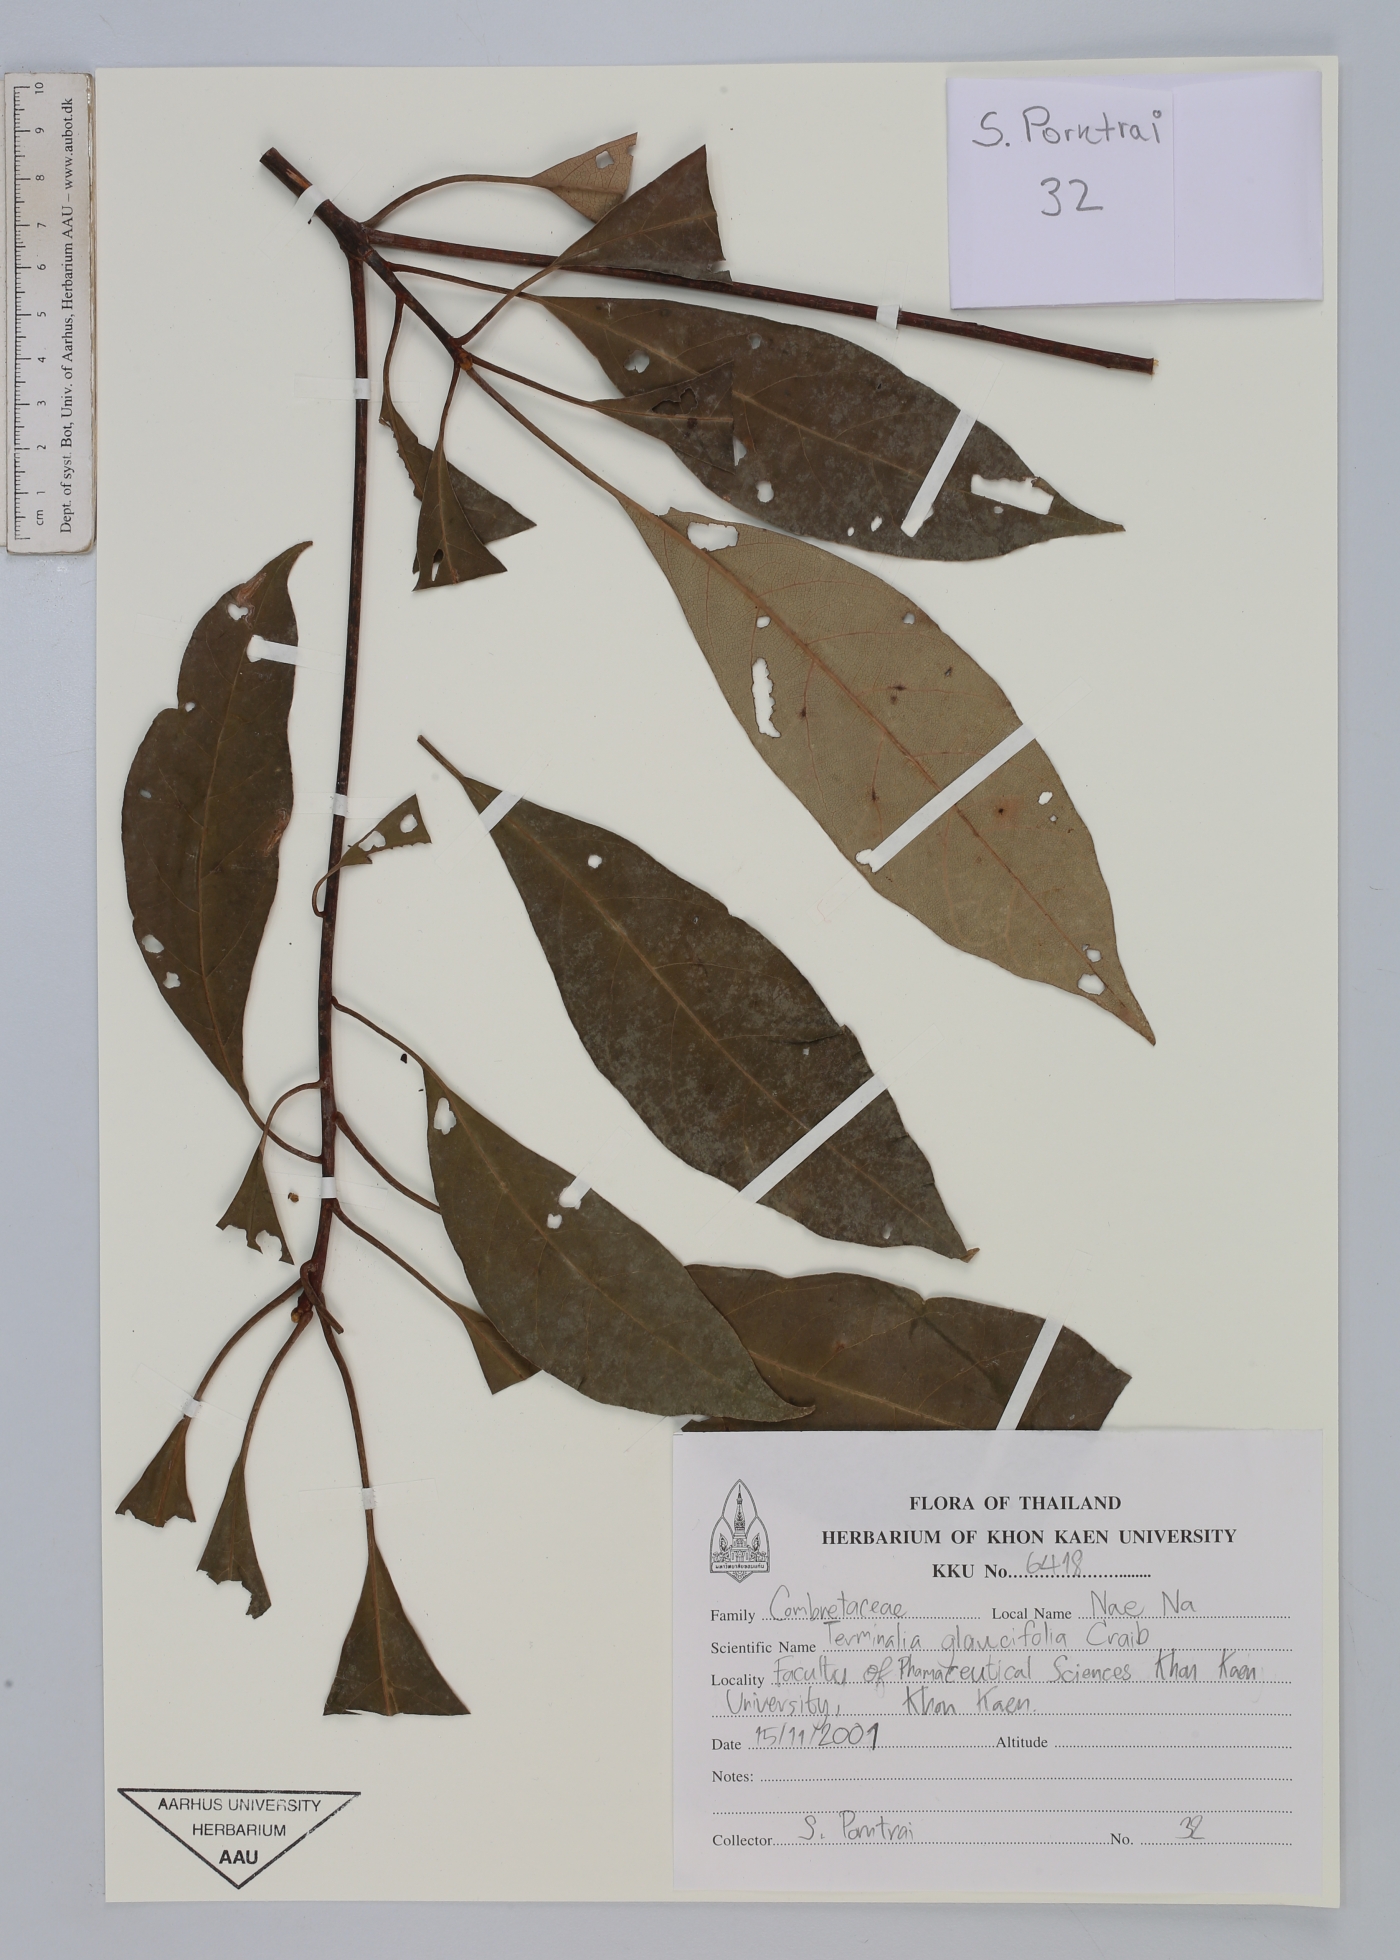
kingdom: Plantae
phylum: Tracheophyta
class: Magnoliopsida
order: Myrtales
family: Combretaceae
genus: Terminalia
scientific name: Terminalia glaucifolia
